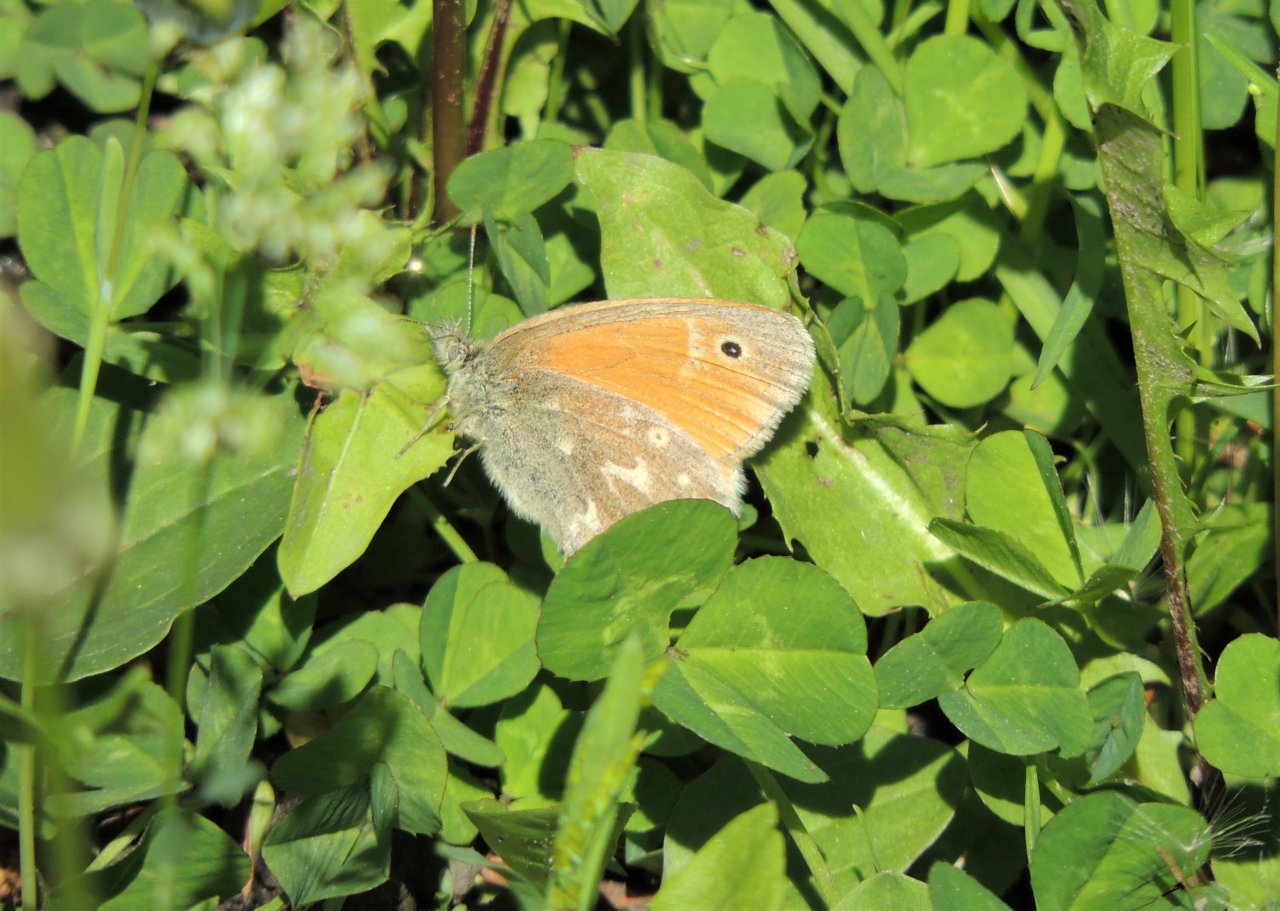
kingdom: Animalia
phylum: Arthropoda
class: Insecta
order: Lepidoptera
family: Nymphalidae
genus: Coenonympha
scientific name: Coenonympha tullia
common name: Large Heath
